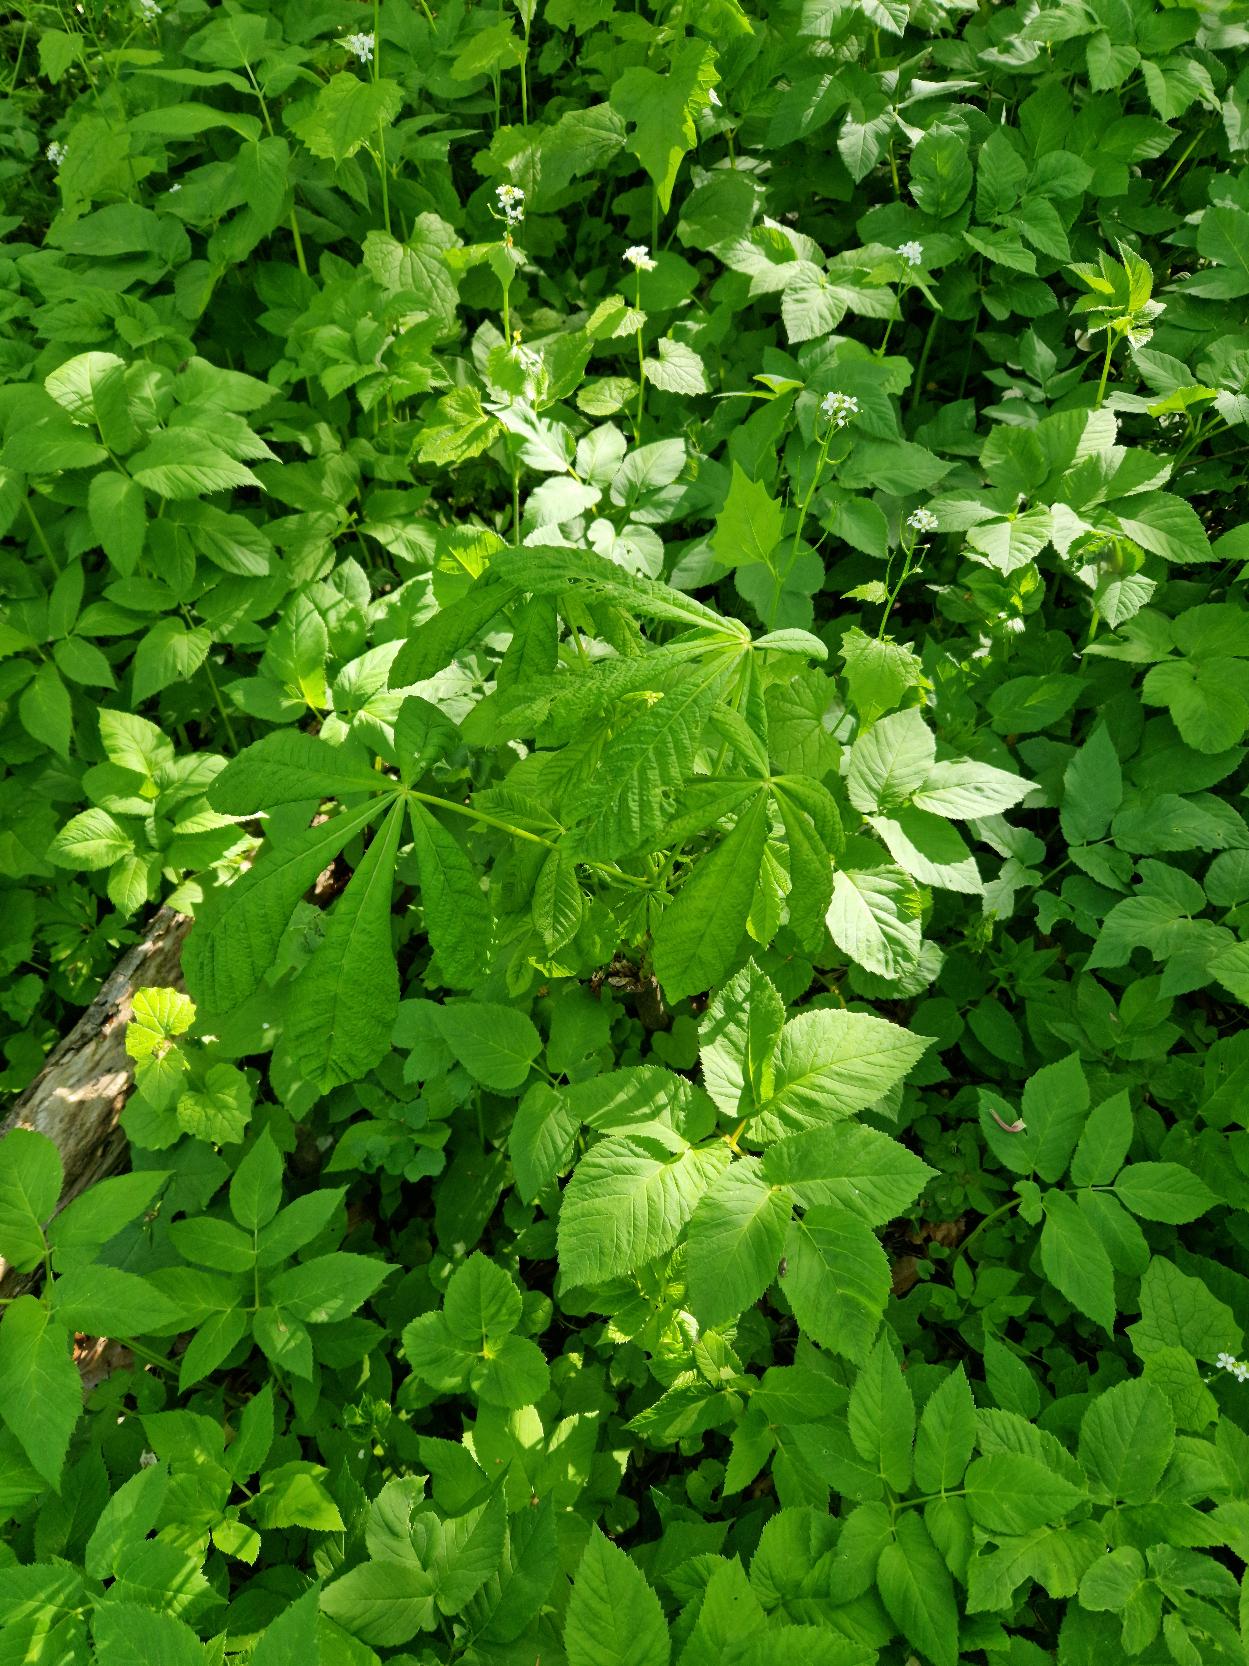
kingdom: Plantae
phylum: Tracheophyta
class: Magnoliopsida
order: Sapindales
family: Sapindaceae
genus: Aesculus
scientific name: Aesculus hippocastanum
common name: Hestekastanie
